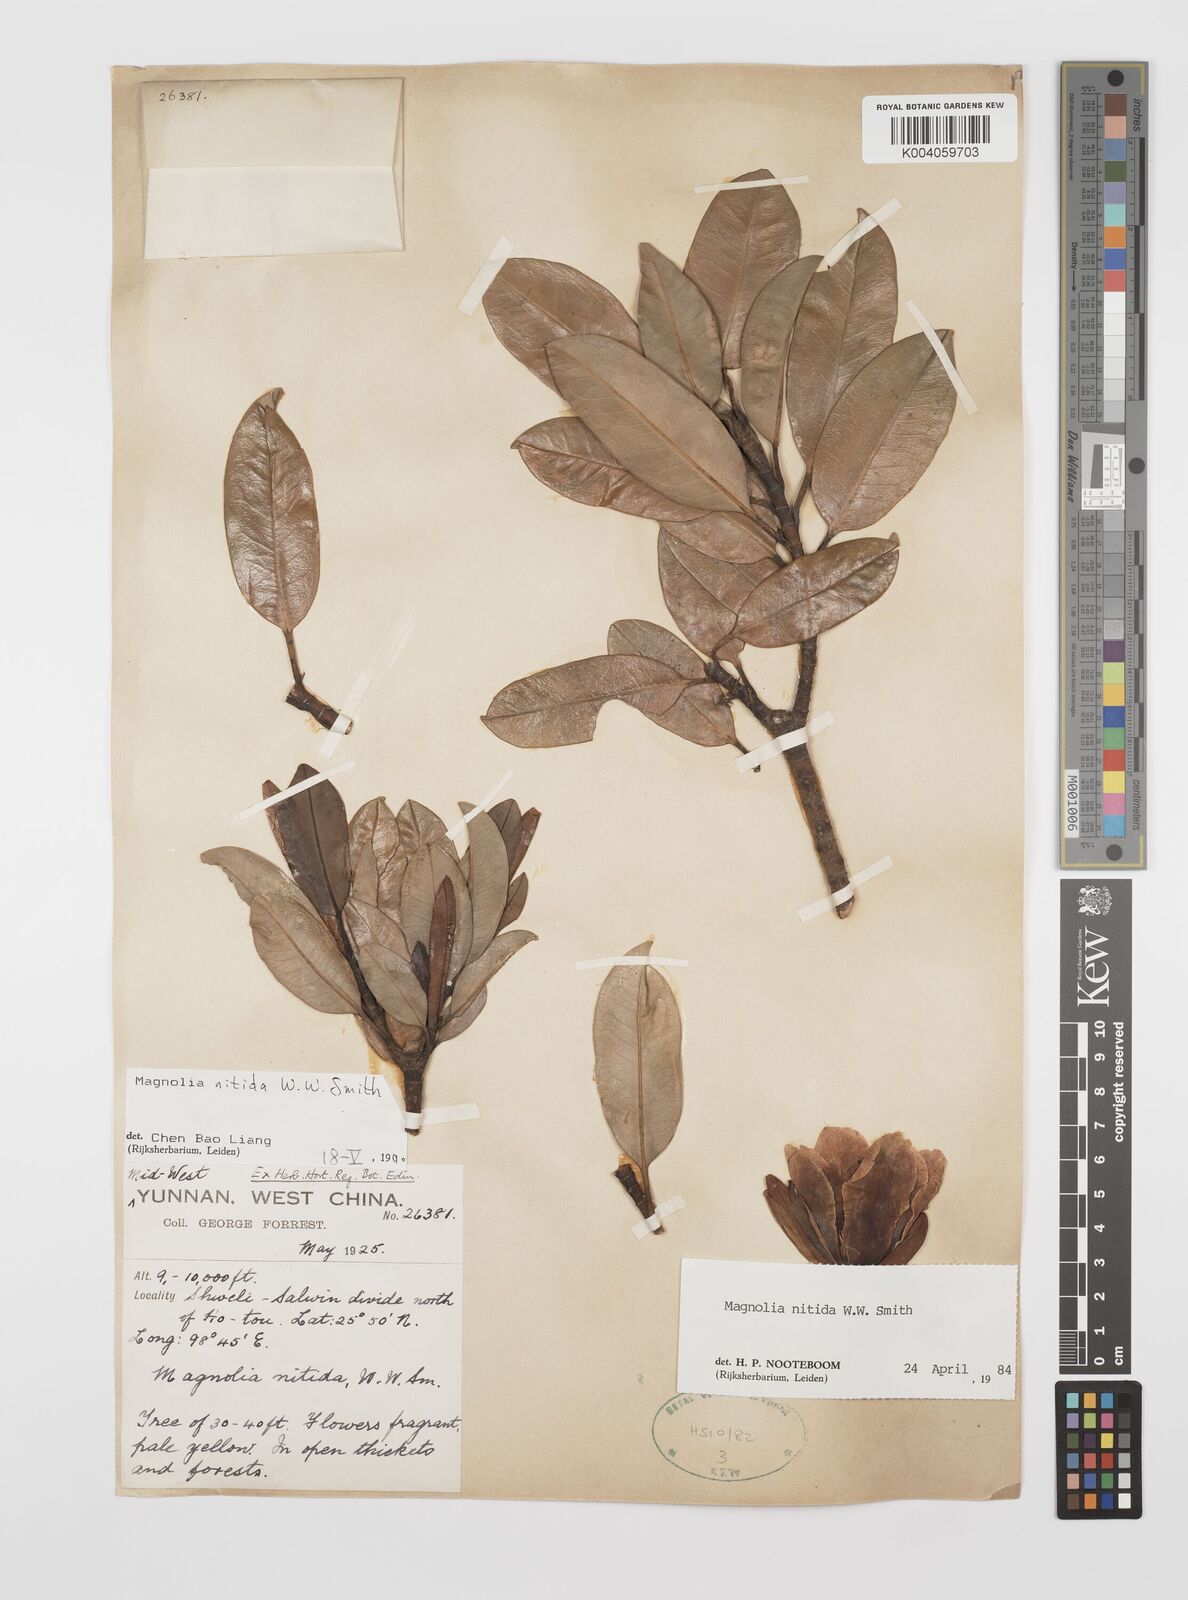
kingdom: Plantae
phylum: Tracheophyta
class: Magnoliopsida
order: Magnoliales
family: Magnoliaceae
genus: Magnolia
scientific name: Magnolia nitida
